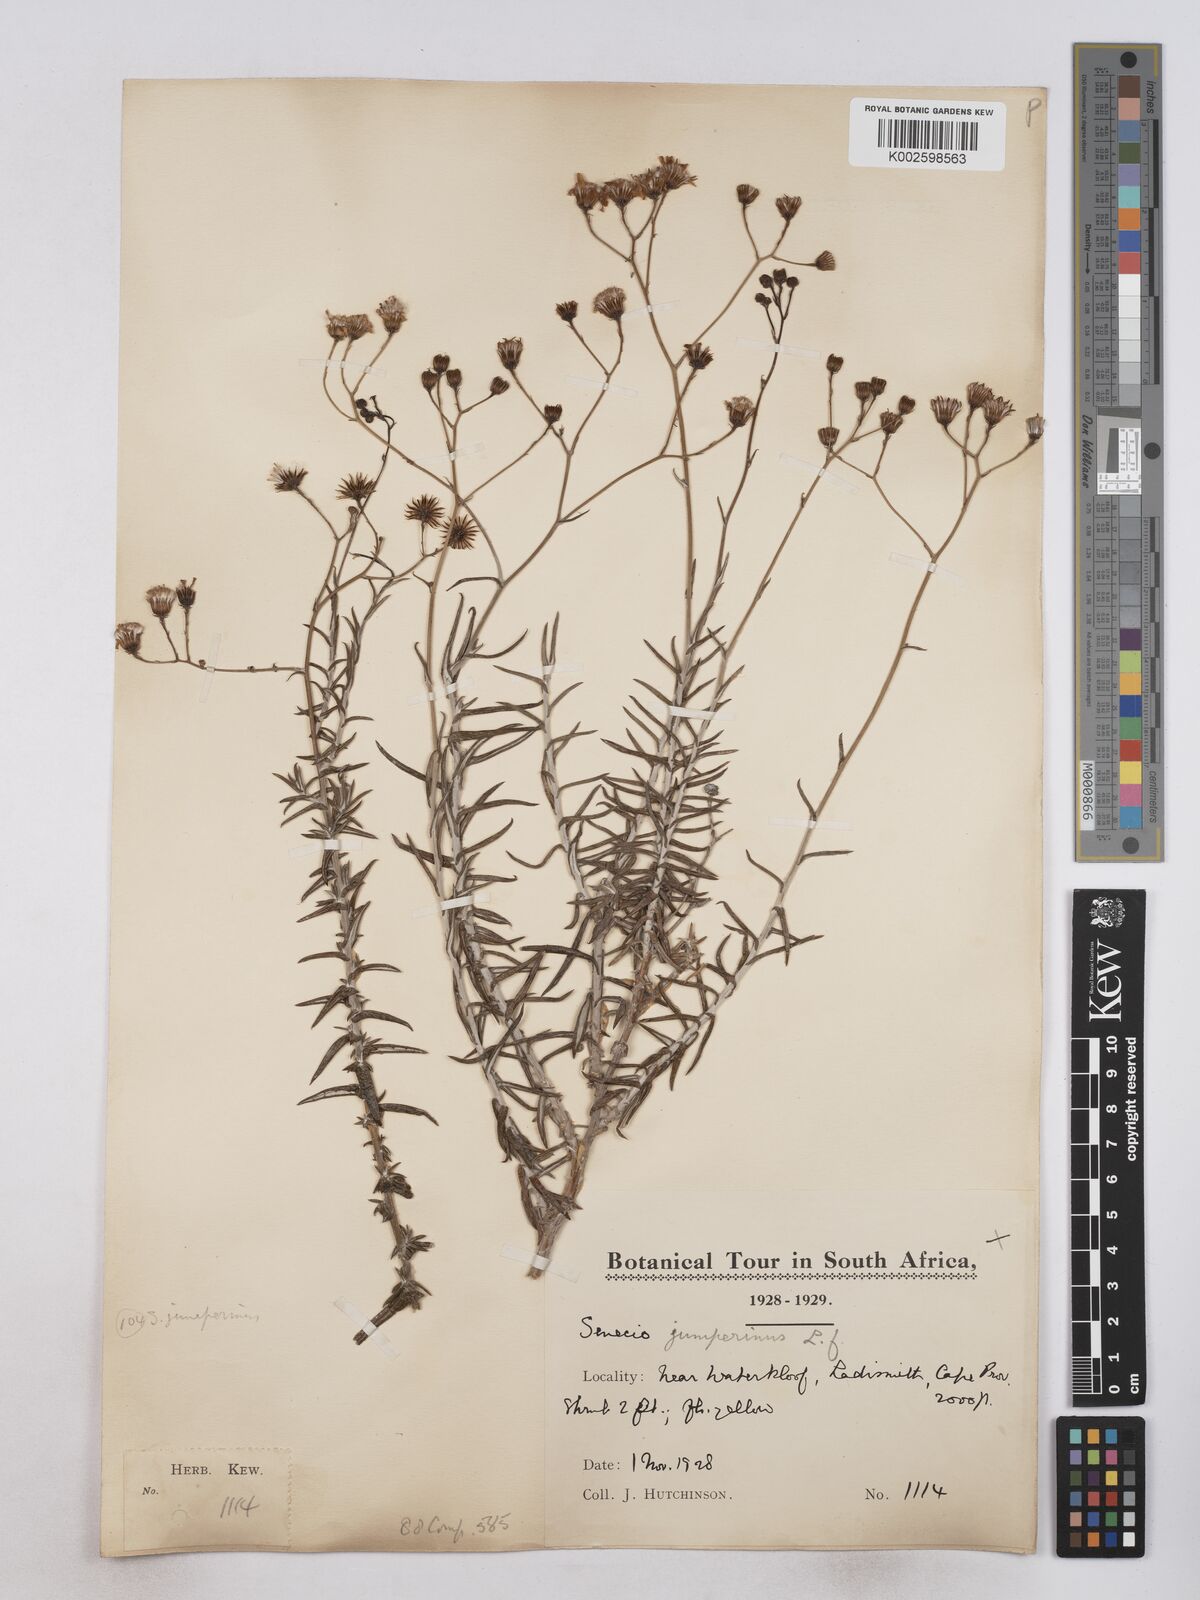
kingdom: Plantae
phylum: Tracheophyta
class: Magnoliopsida
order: Asterales
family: Asteraceae
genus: Senecio
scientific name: Senecio juniperinus
